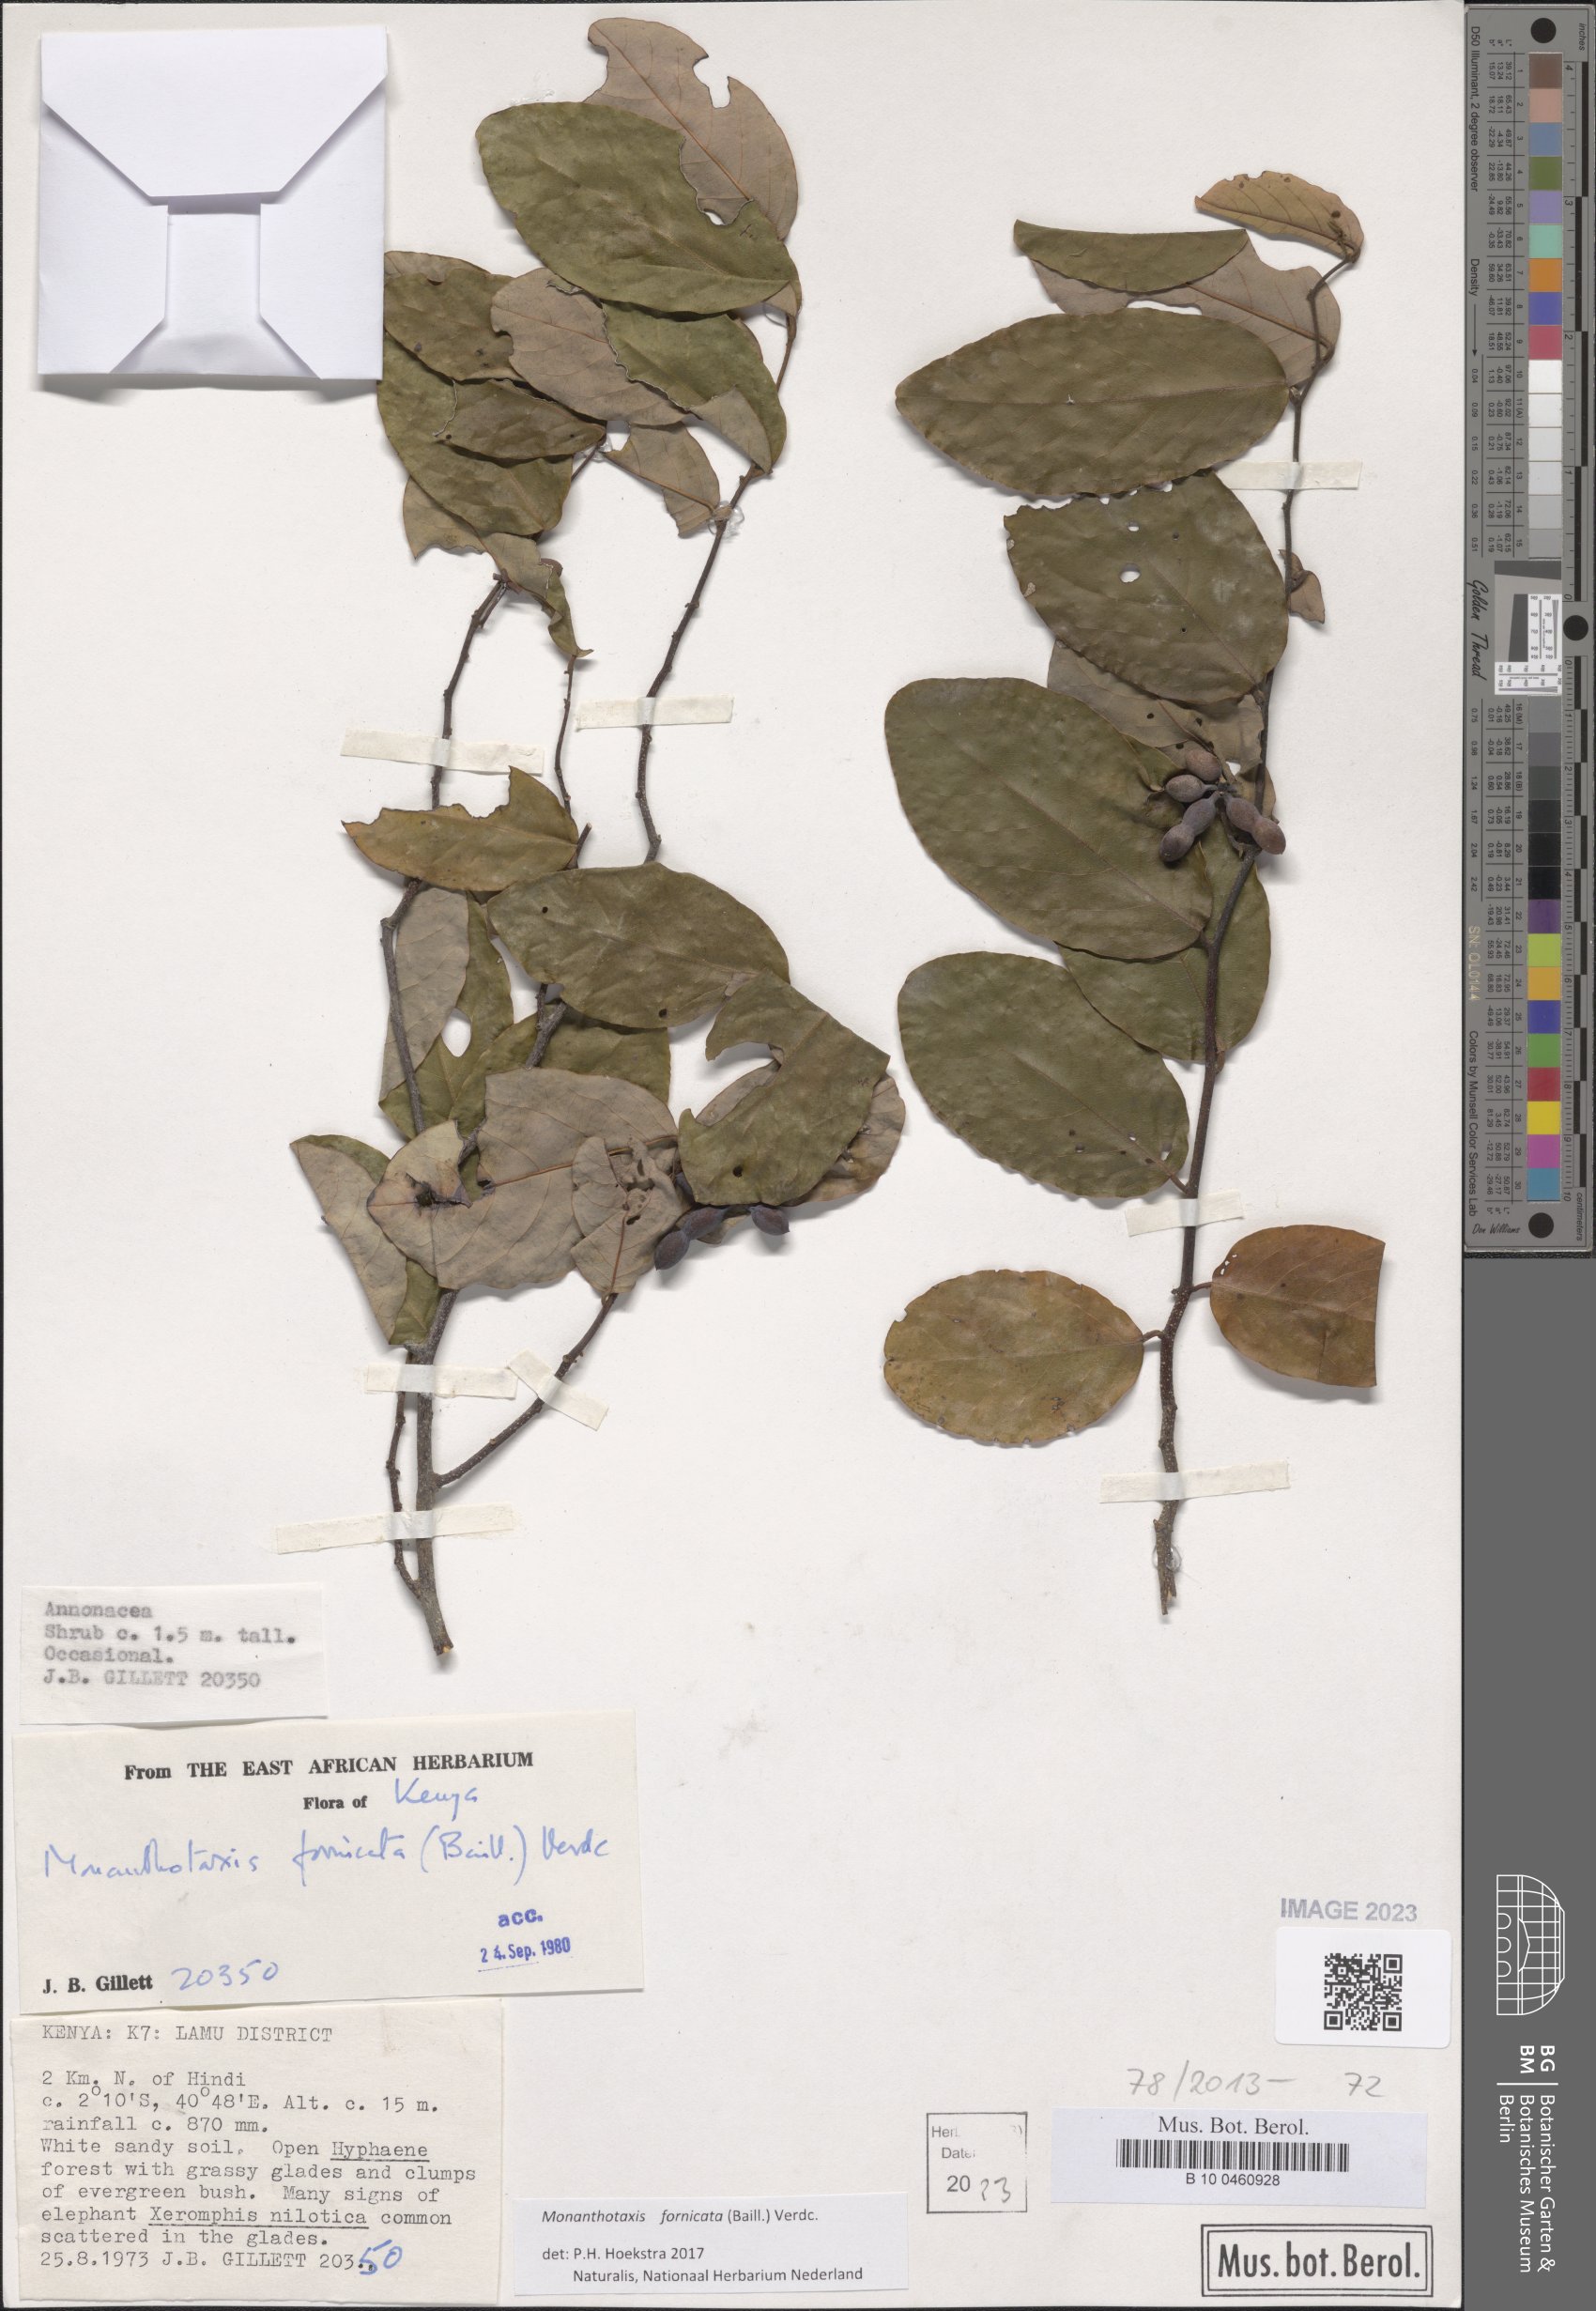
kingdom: Plantae
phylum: Tracheophyta
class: Magnoliopsida
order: Magnoliales
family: Annonaceae
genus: Monanthotaxis
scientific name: Monanthotaxis fornicata
